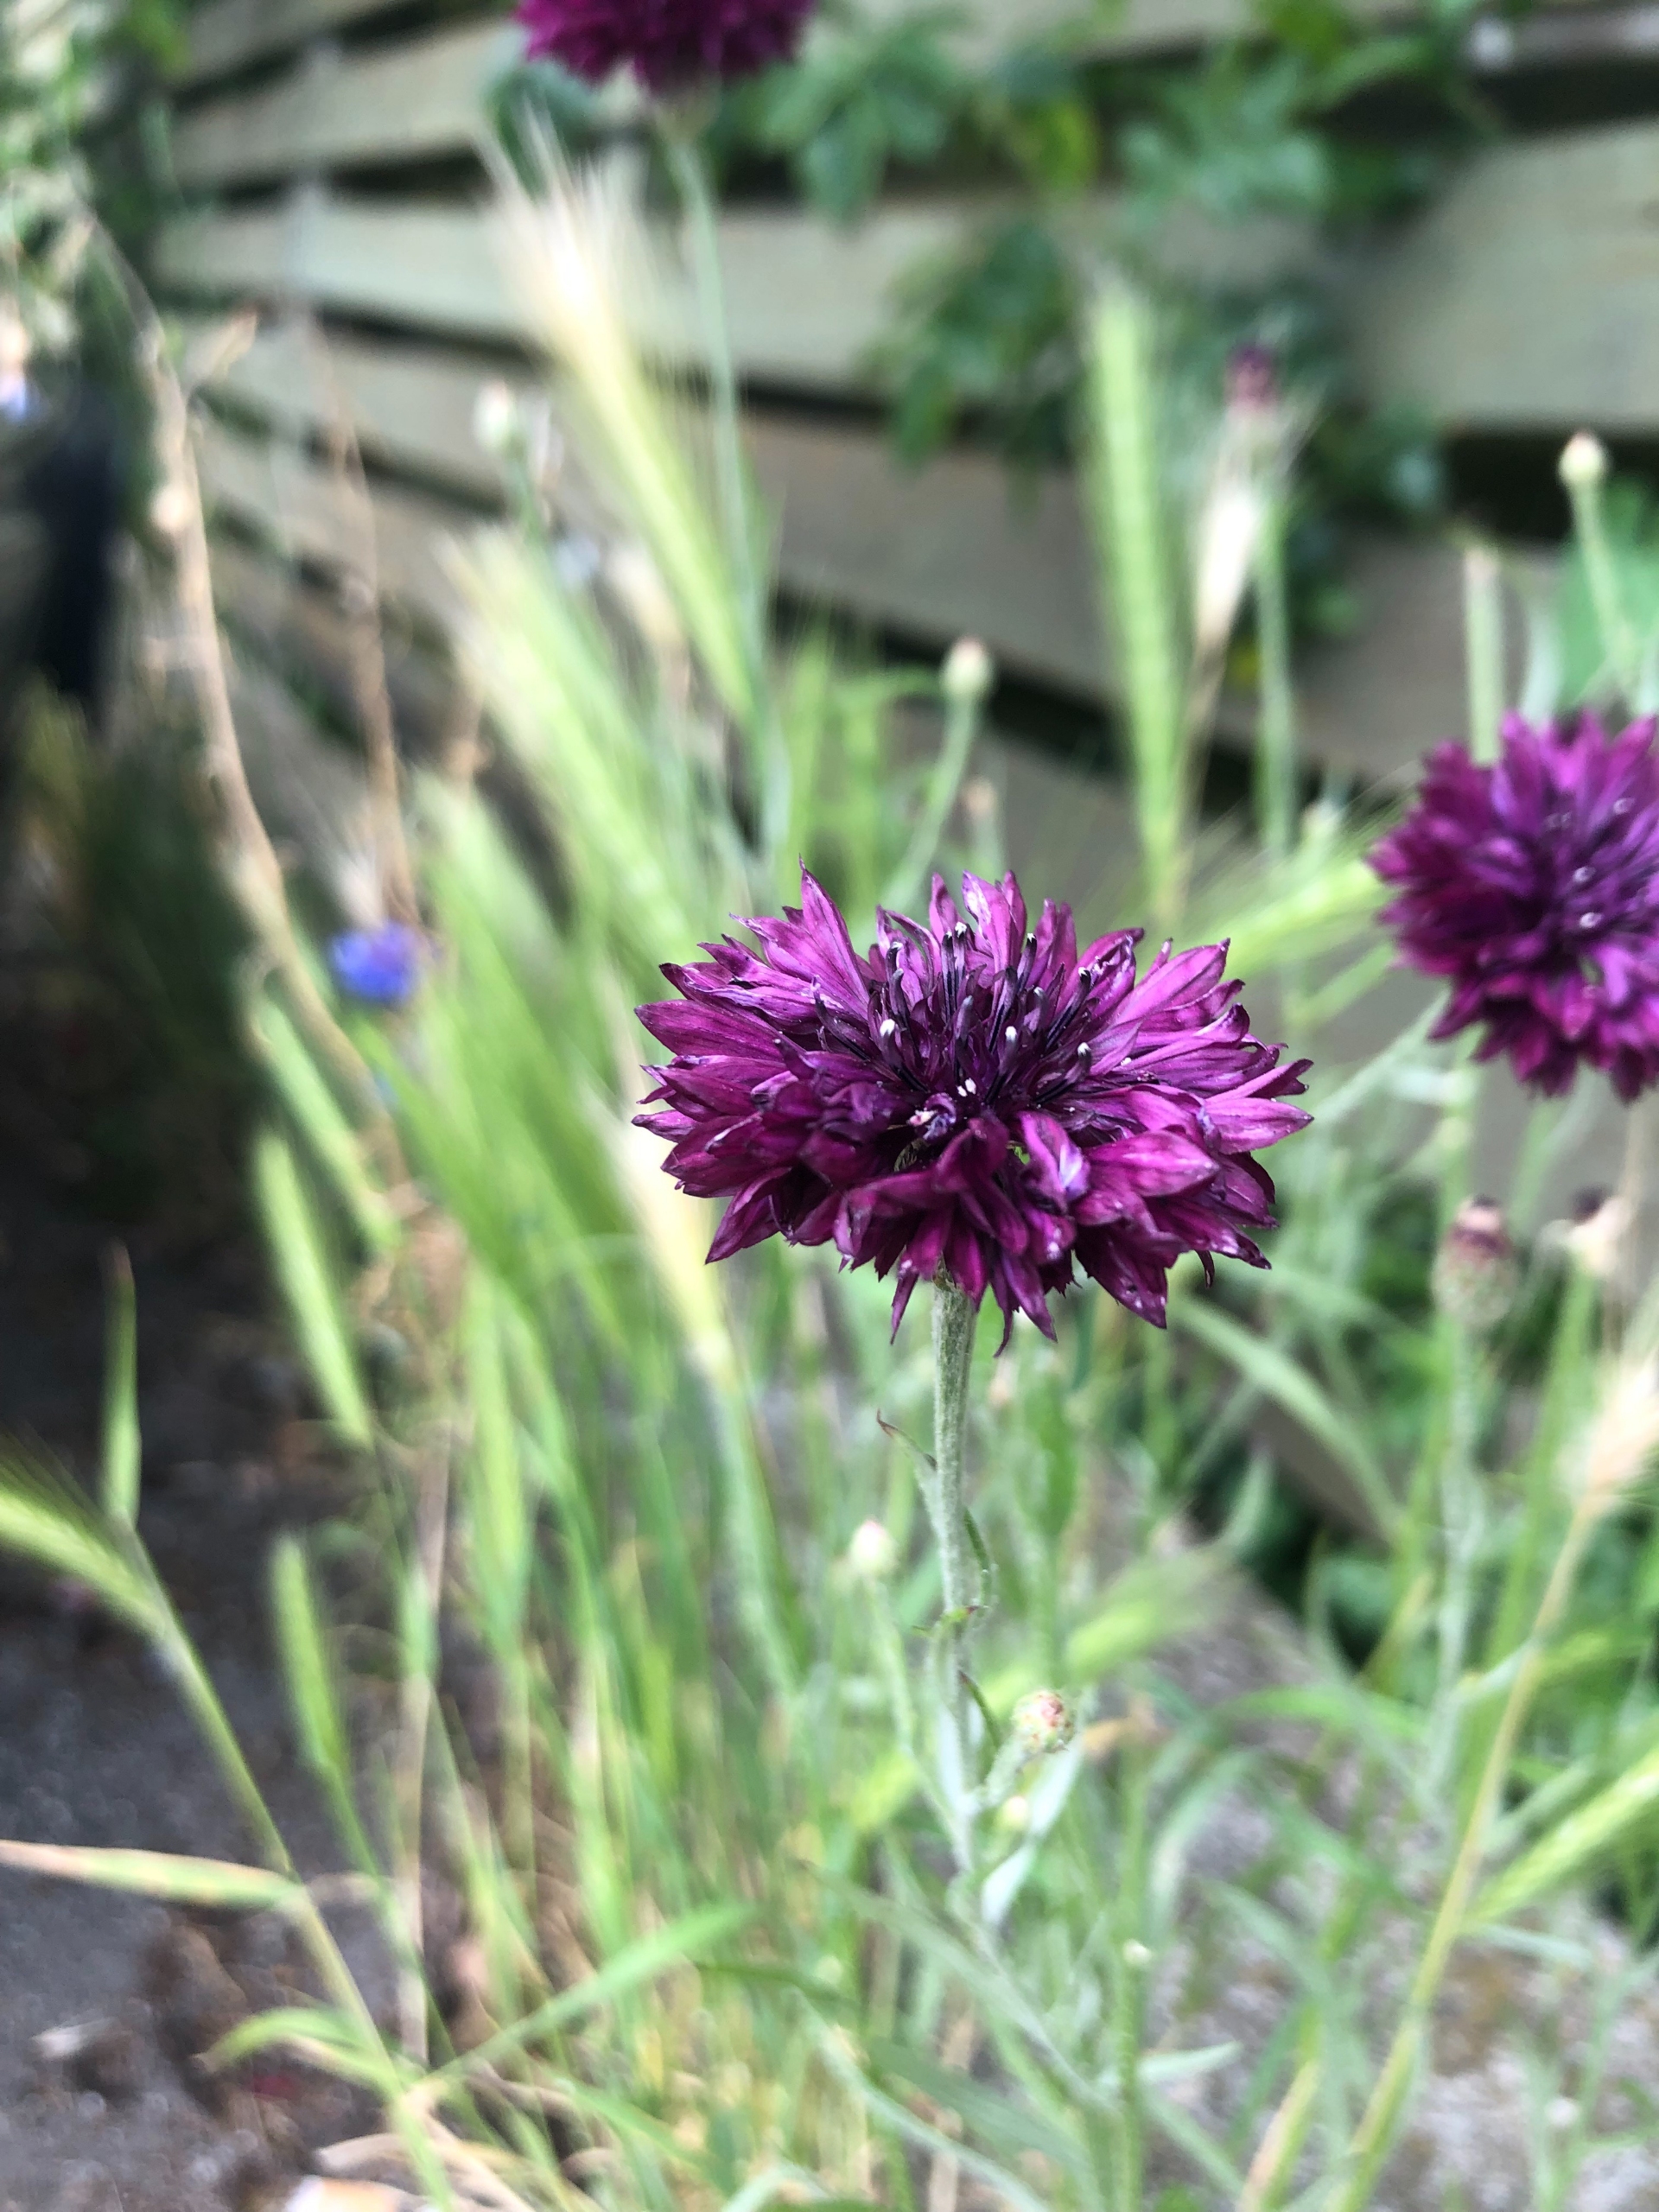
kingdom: Plantae
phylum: Tracheophyta
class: Magnoliopsida
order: Asterales
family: Asteraceae
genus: Centaurea
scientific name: Centaurea cyanus
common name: Kornblomst
